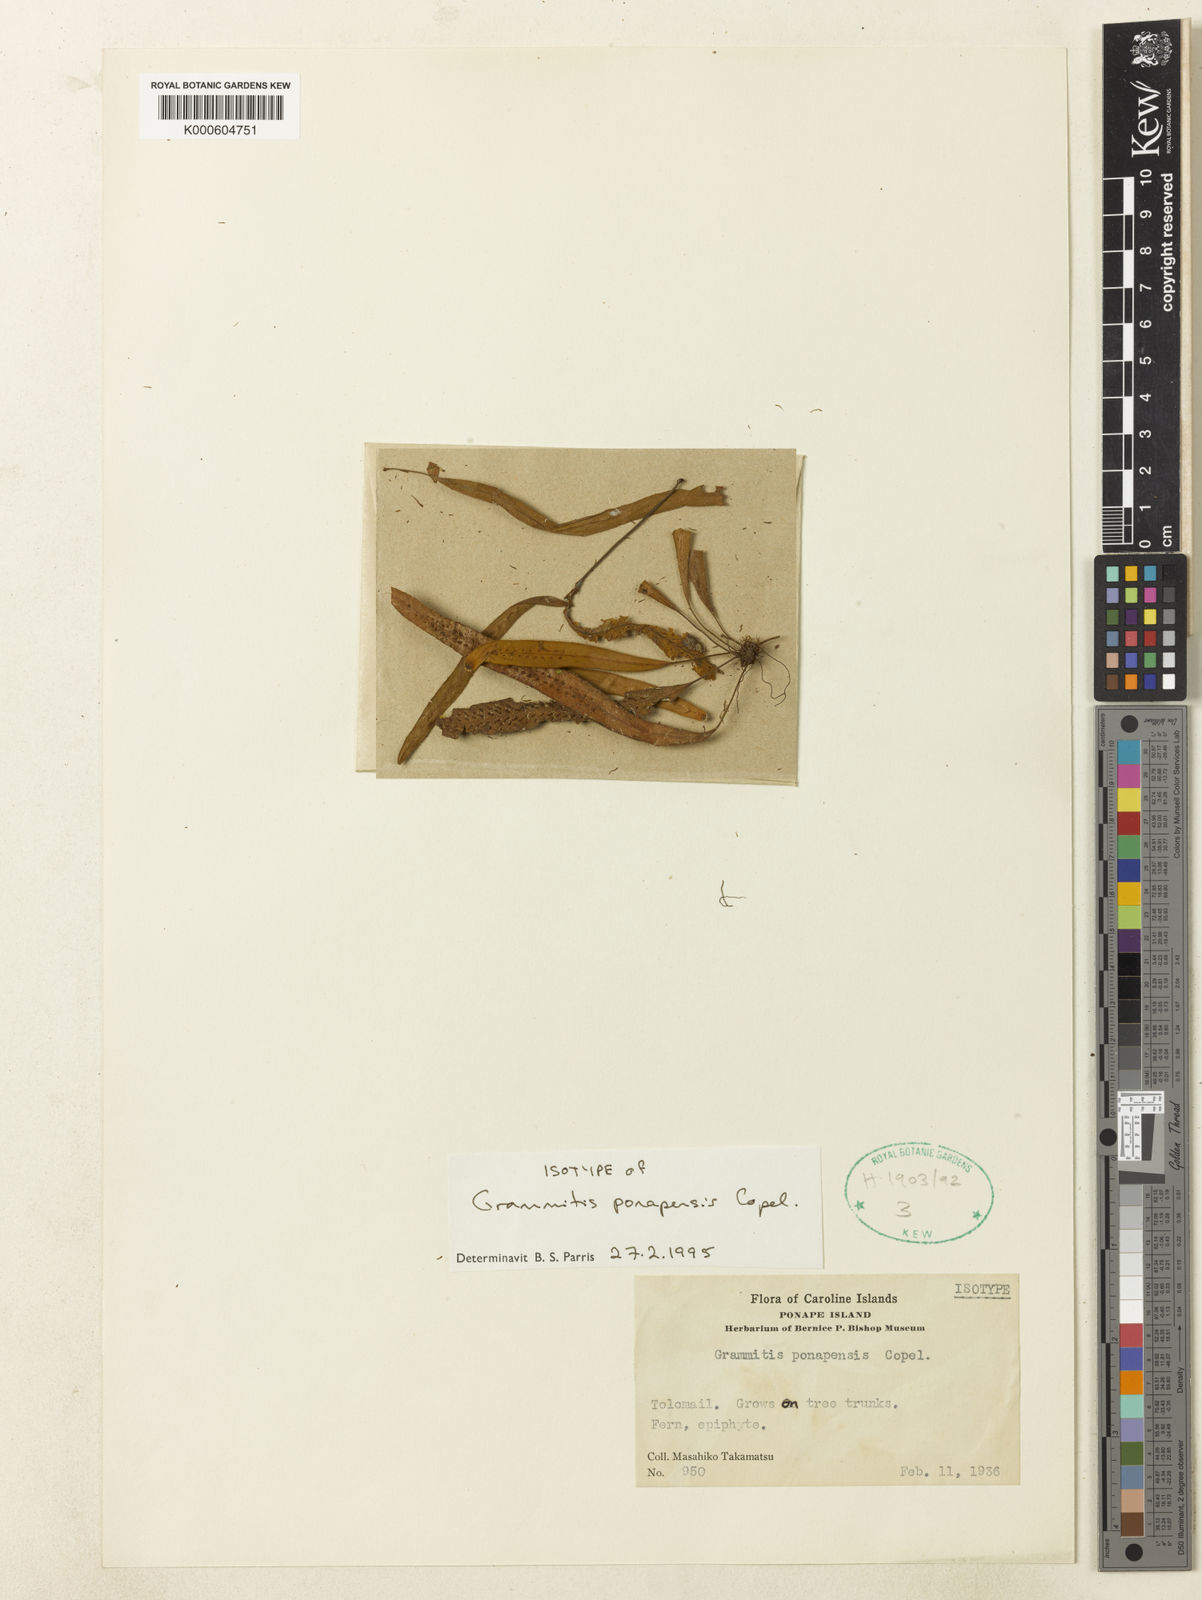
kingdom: Plantae
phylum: Tracheophyta
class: Polypodiopsida
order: Polypodiales
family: Polypodiaceae
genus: Archigrammitis
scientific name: Archigrammitis ponapensis
